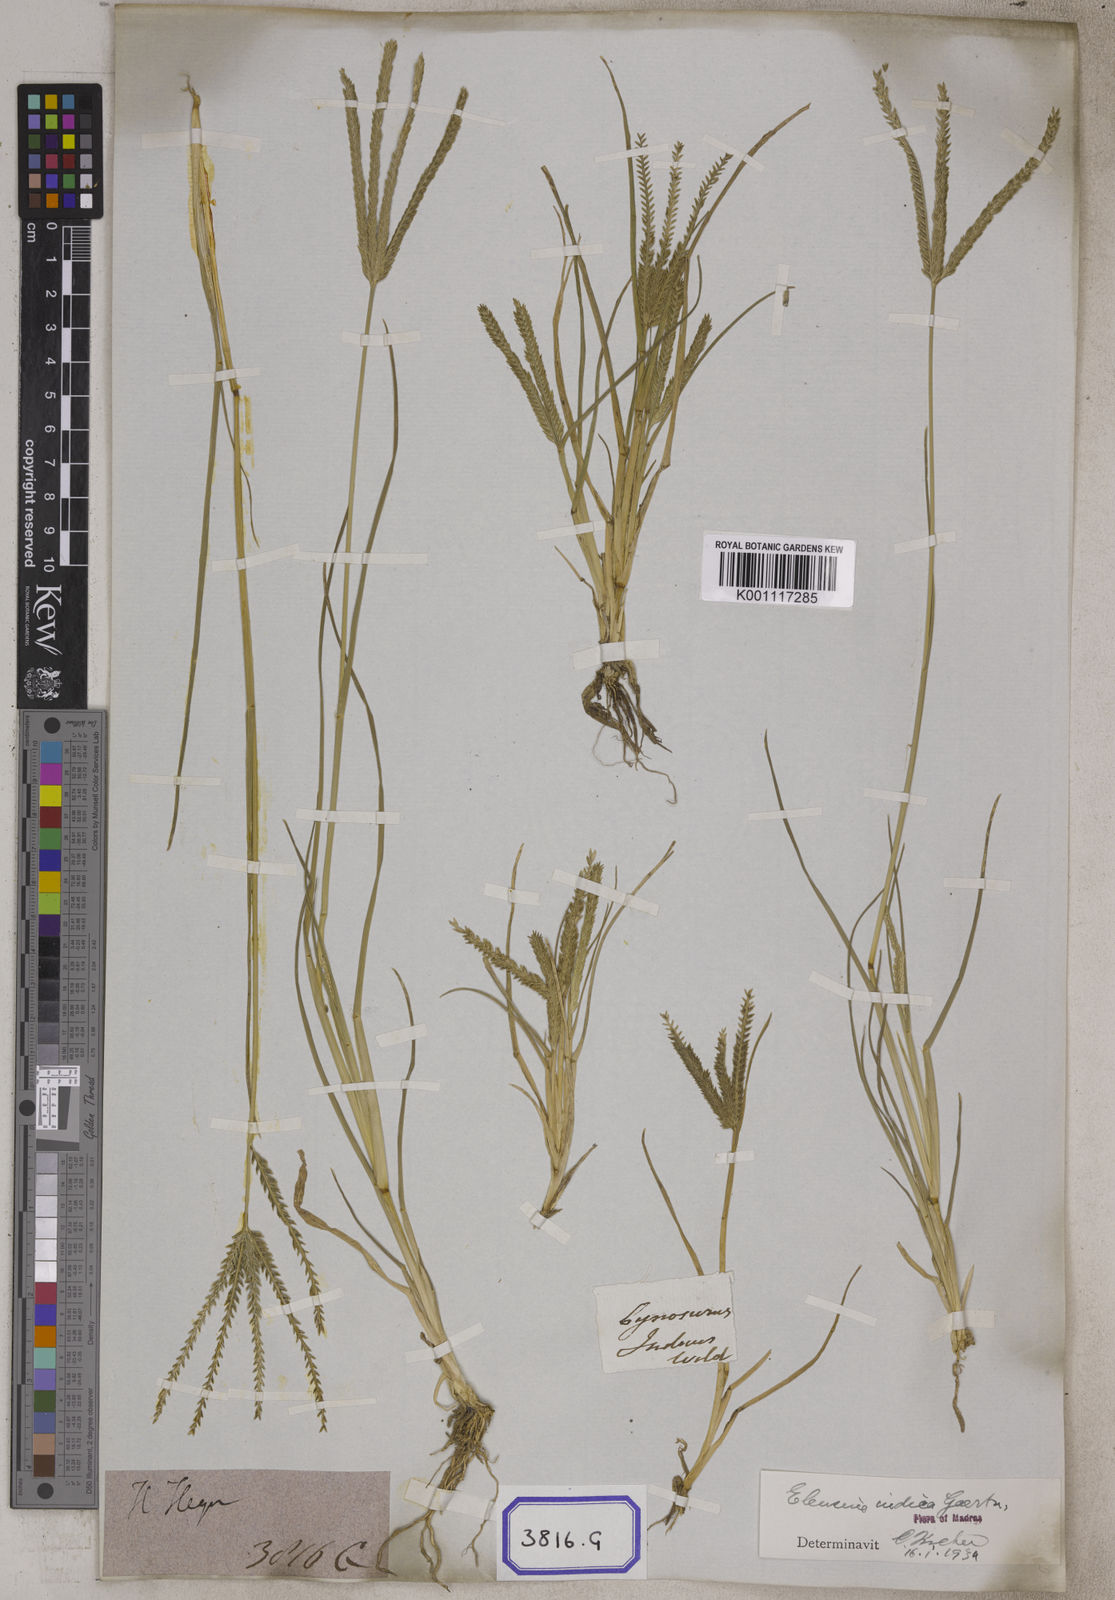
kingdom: Plantae
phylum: Tracheophyta
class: Liliopsida
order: Poales
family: Poaceae
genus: Eleusine
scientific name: Eleusine
